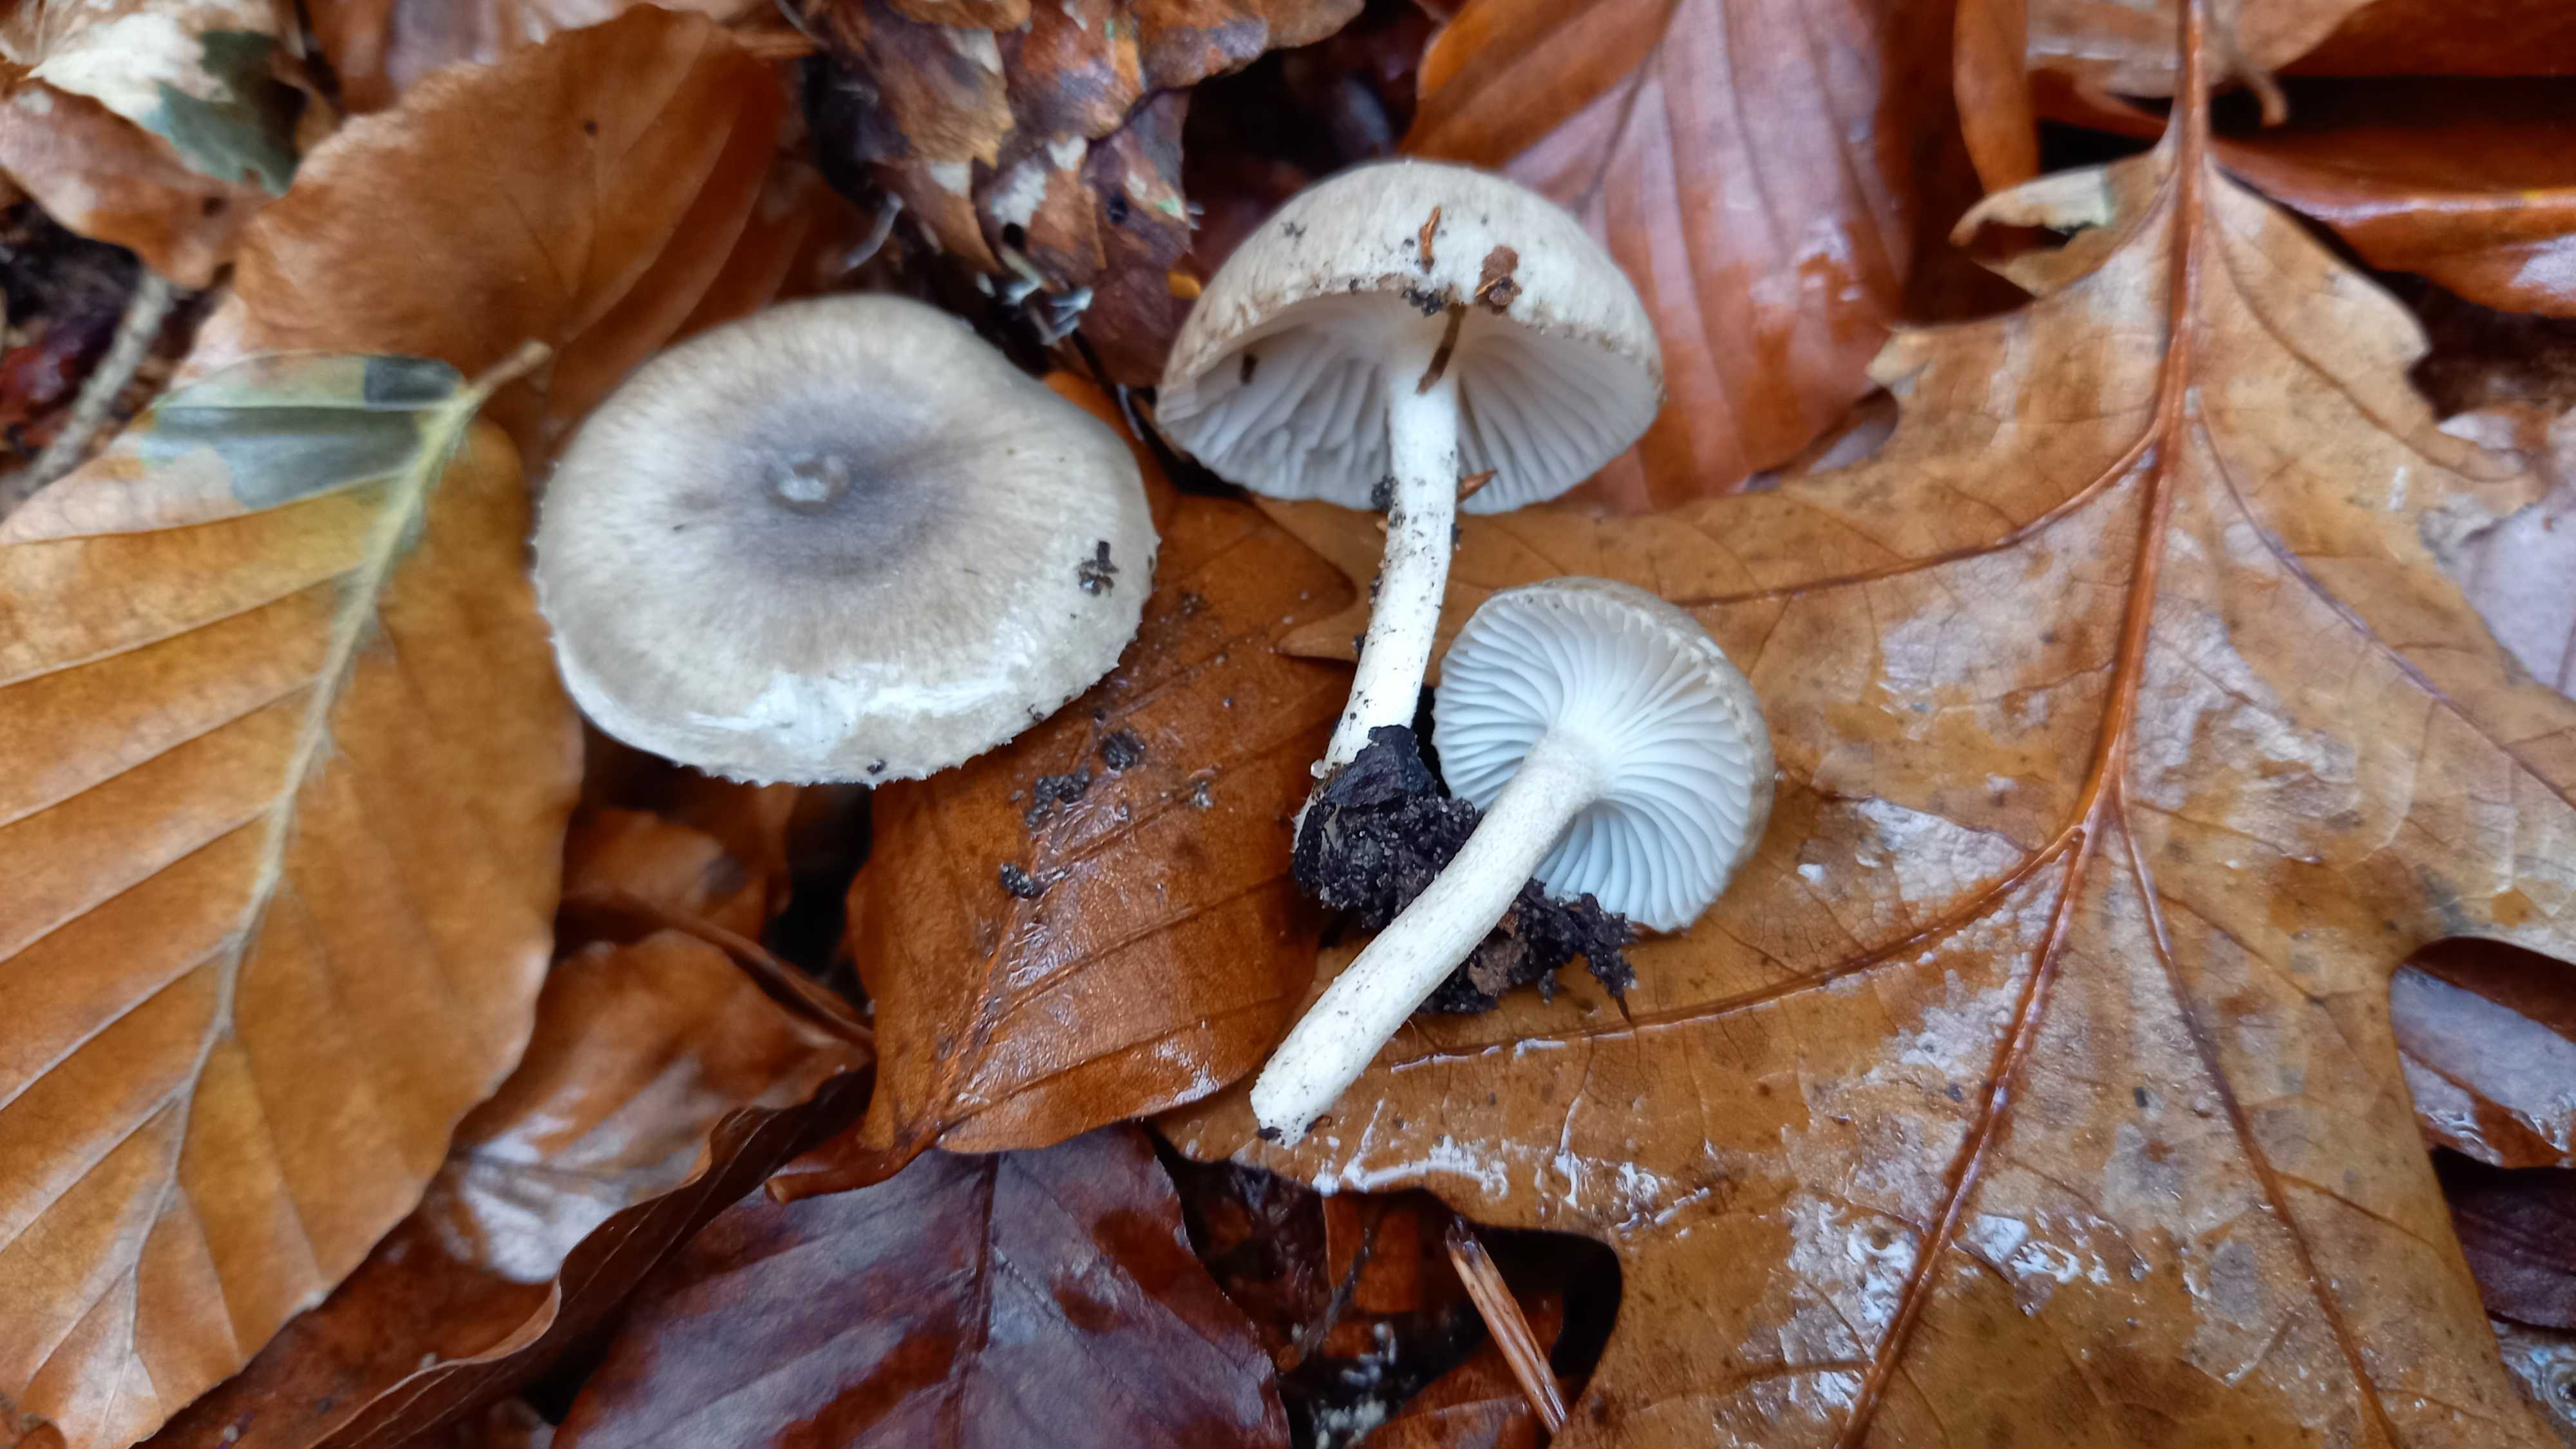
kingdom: Fungi
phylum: Basidiomycota
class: Agaricomycetes
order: Agaricales
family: Hygrophoraceae
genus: Hygrophorus
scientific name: Hygrophorus pustulatus
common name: mørkprikket sneglehat
